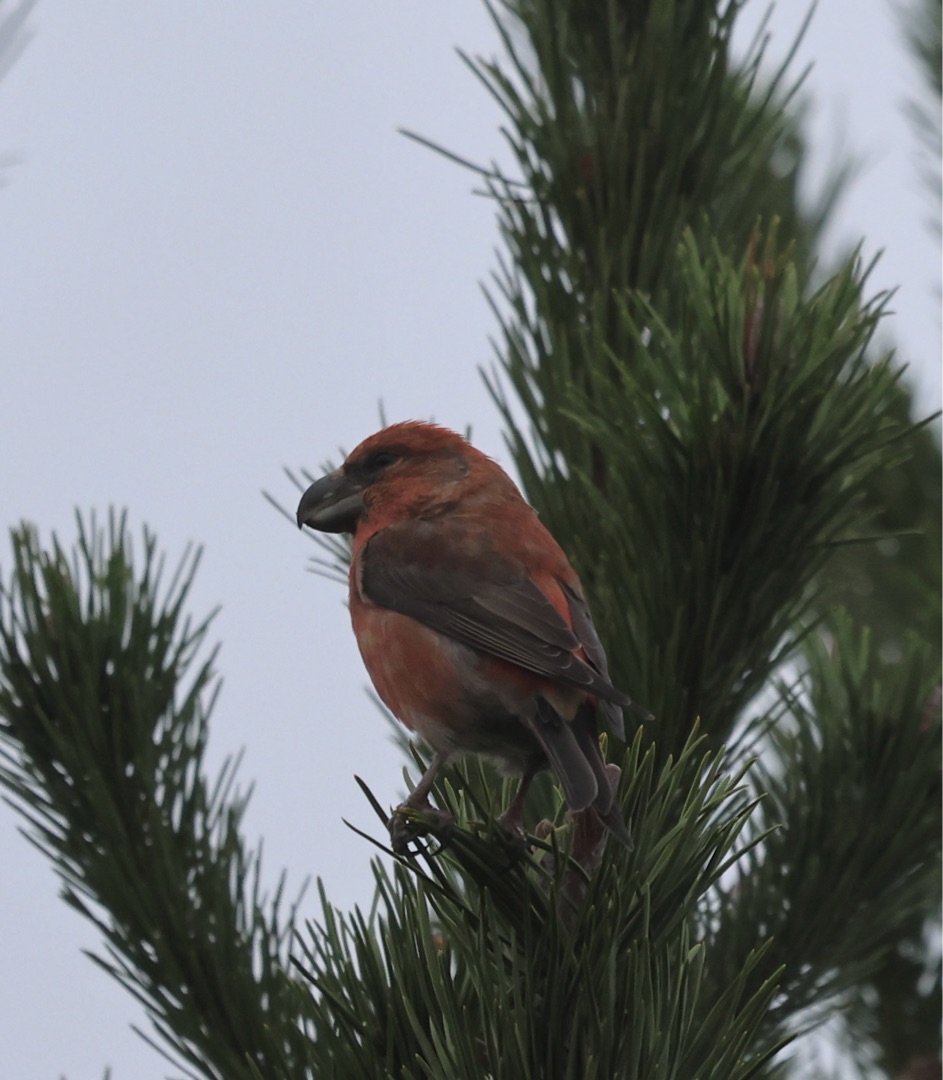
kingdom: Animalia
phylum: Chordata
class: Aves
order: Passeriformes
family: Fringillidae
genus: Loxia
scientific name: Loxia pytyopsittacus
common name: Stor korsnæb
